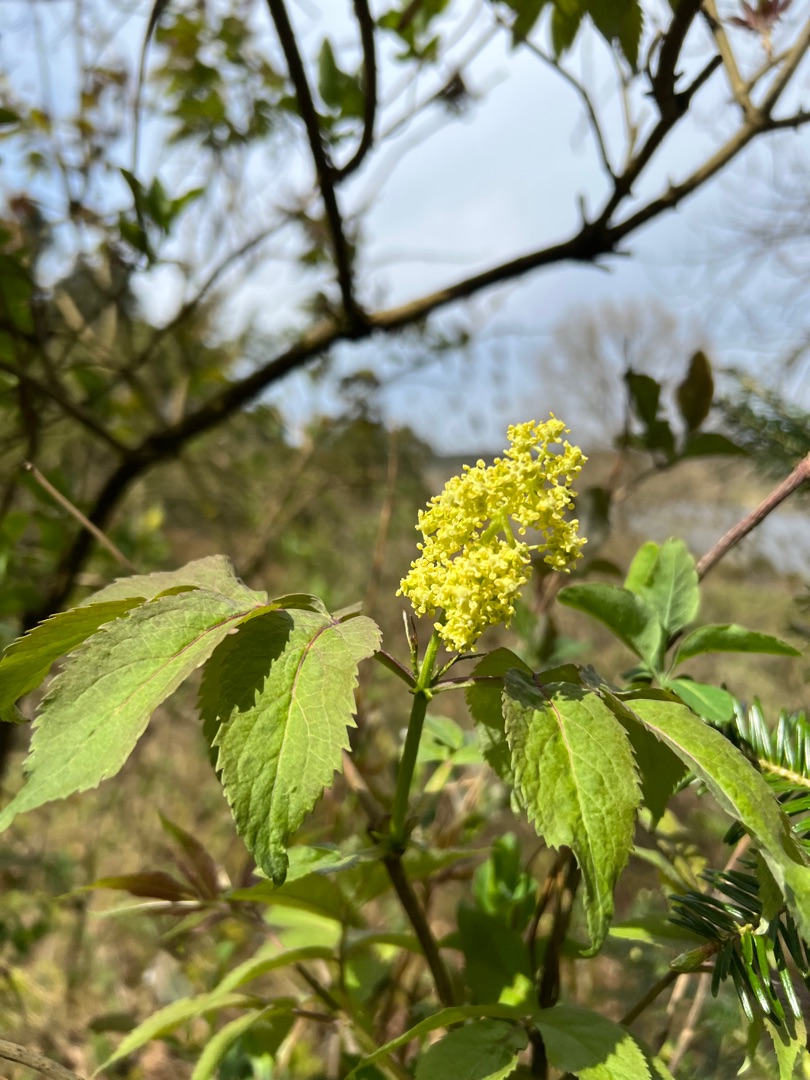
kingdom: Plantae
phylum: Tracheophyta
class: Magnoliopsida
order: Dipsacales
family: Viburnaceae
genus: Sambucus
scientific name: Sambucus racemosa
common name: Drue-hyld
